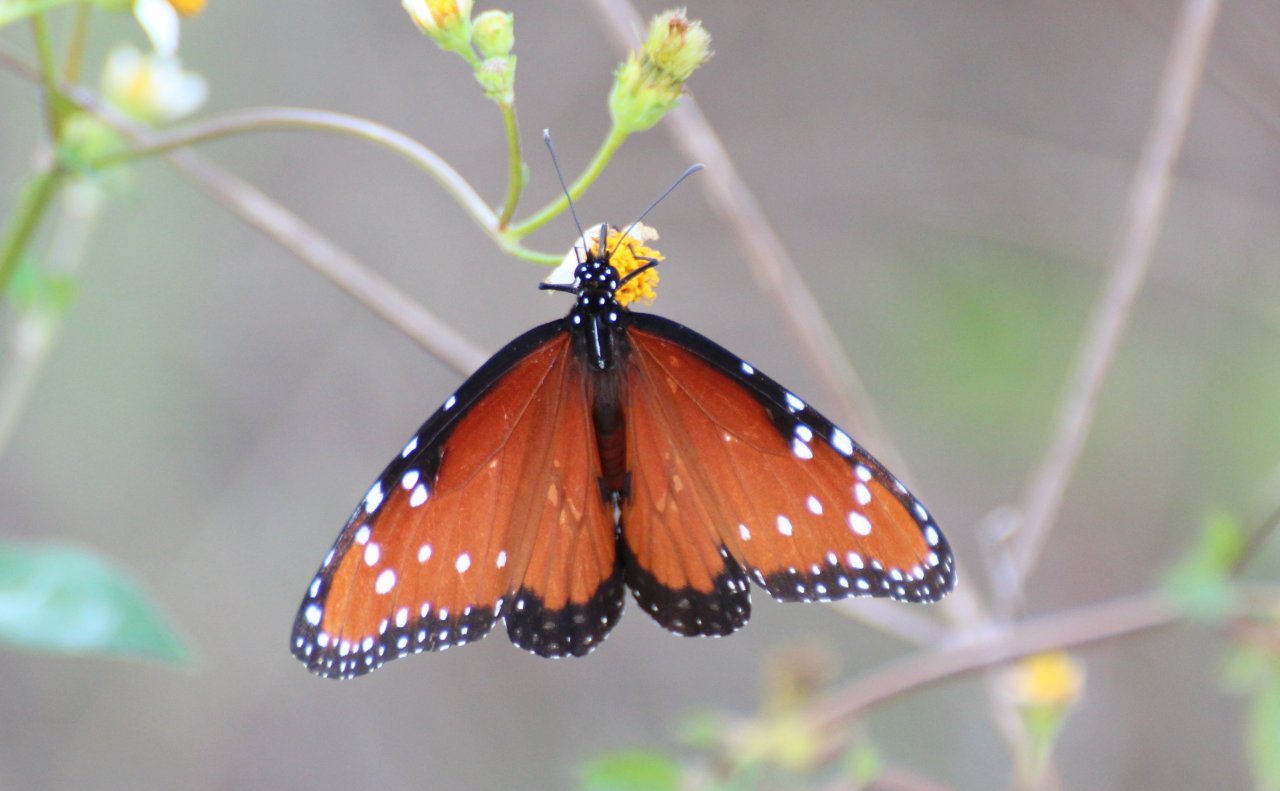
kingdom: Animalia
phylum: Arthropoda
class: Insecta
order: Lepidoptera
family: Nymphalidae
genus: Danaus
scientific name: Danaus gilippus
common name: Queen
